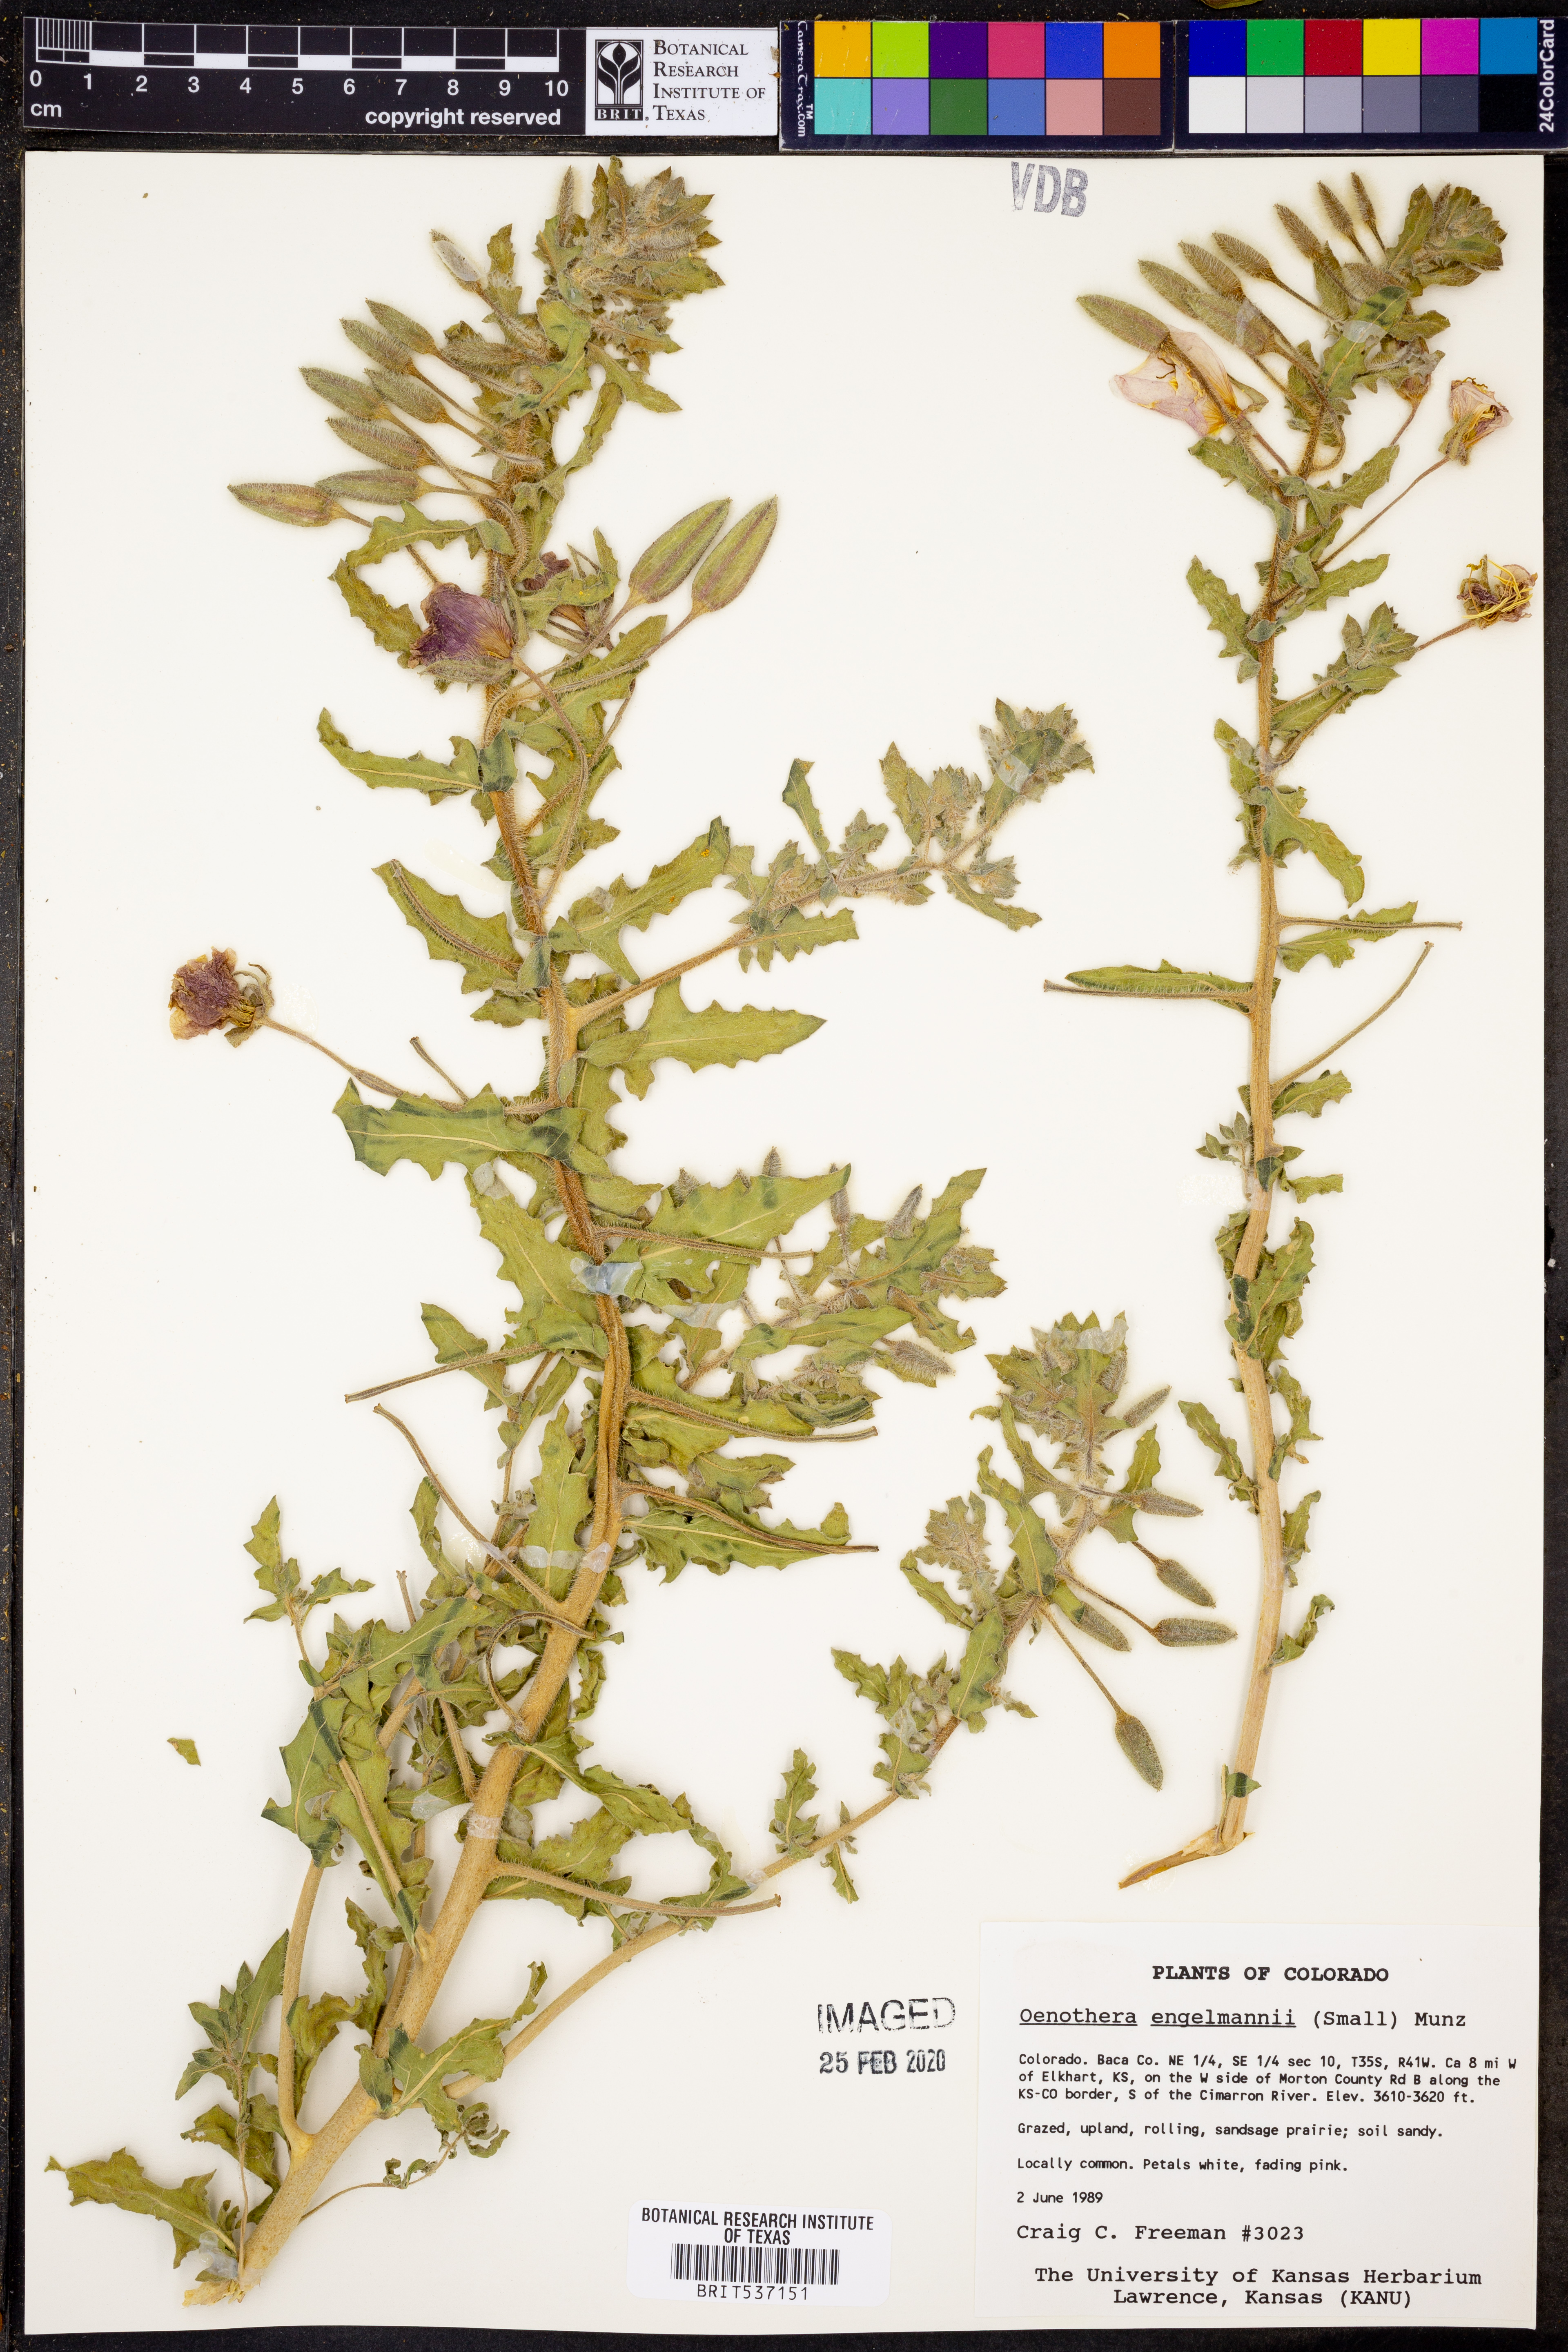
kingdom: Plantae
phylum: Tracheophyta
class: Magnoliopsida
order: Myrtales
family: Onagraceae
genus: Oenothera
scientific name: Oenothera engelmannii
